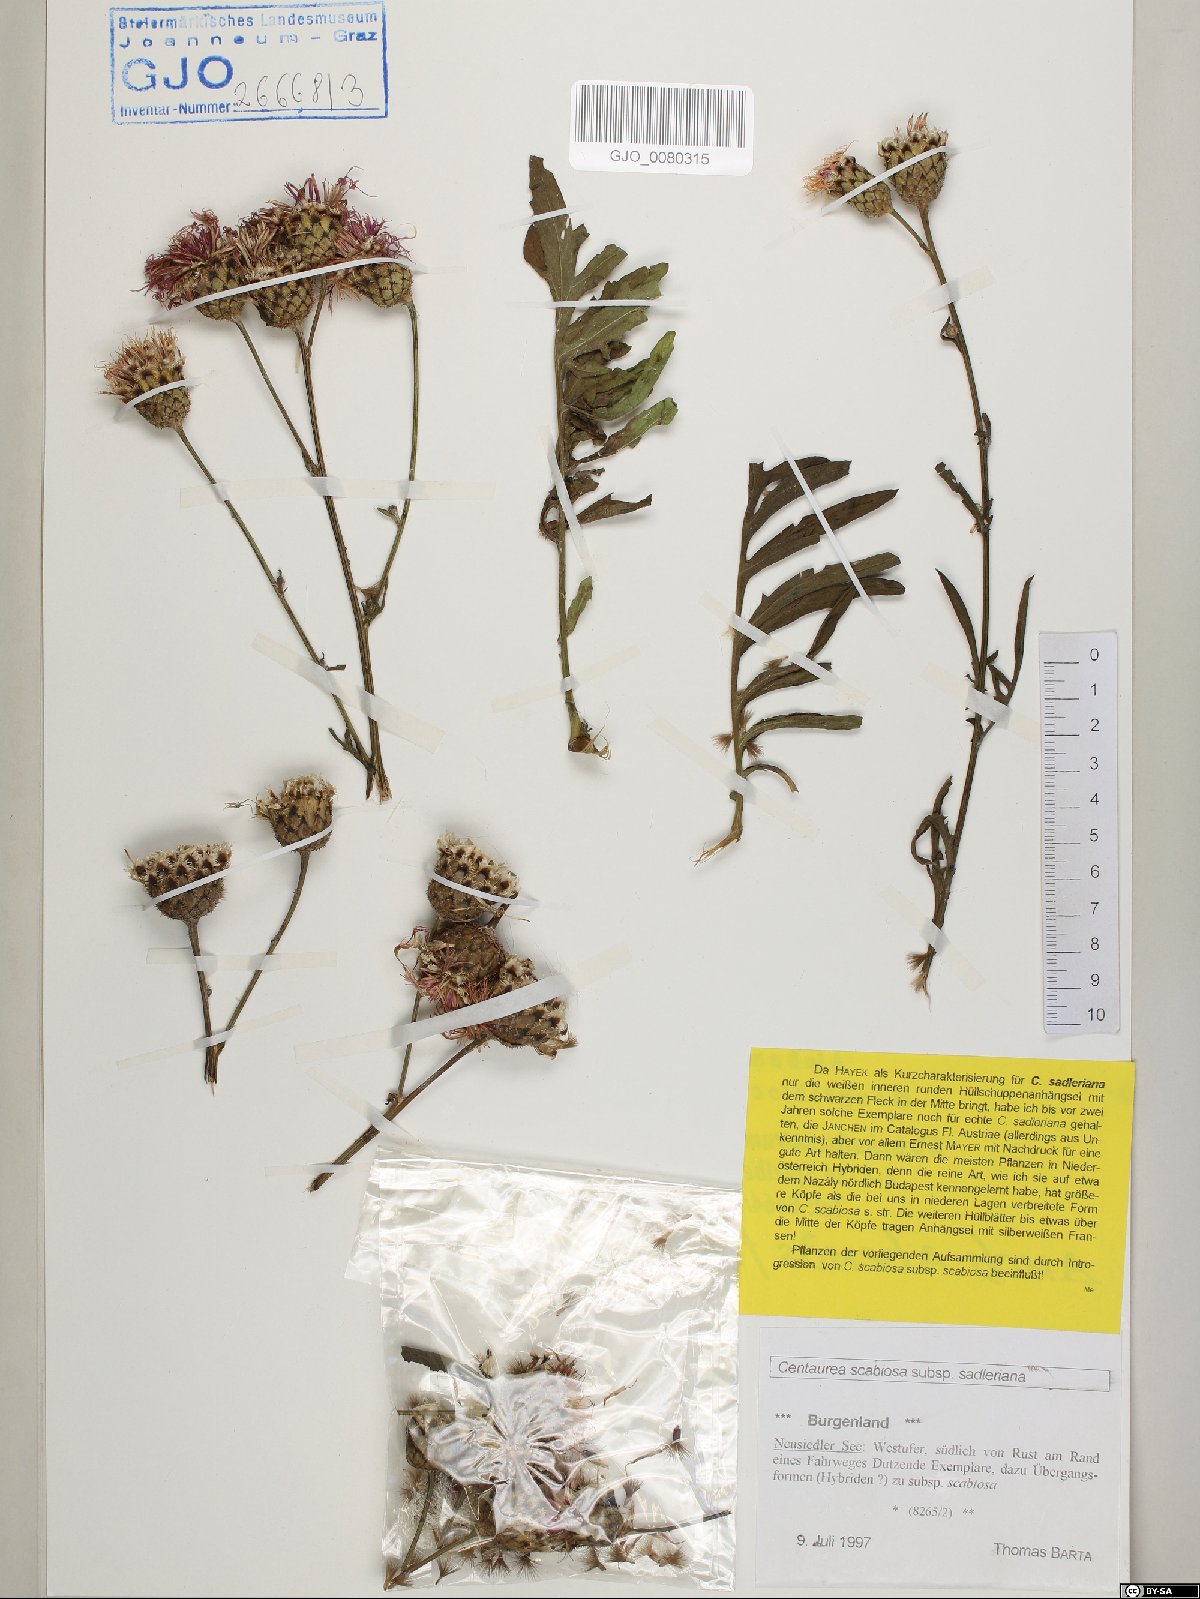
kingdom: Plantae
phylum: Tracheophyta
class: Magnoliopsida
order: Asterales
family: Asteraceae
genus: Centaurea
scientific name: Centaurea sadleriana
